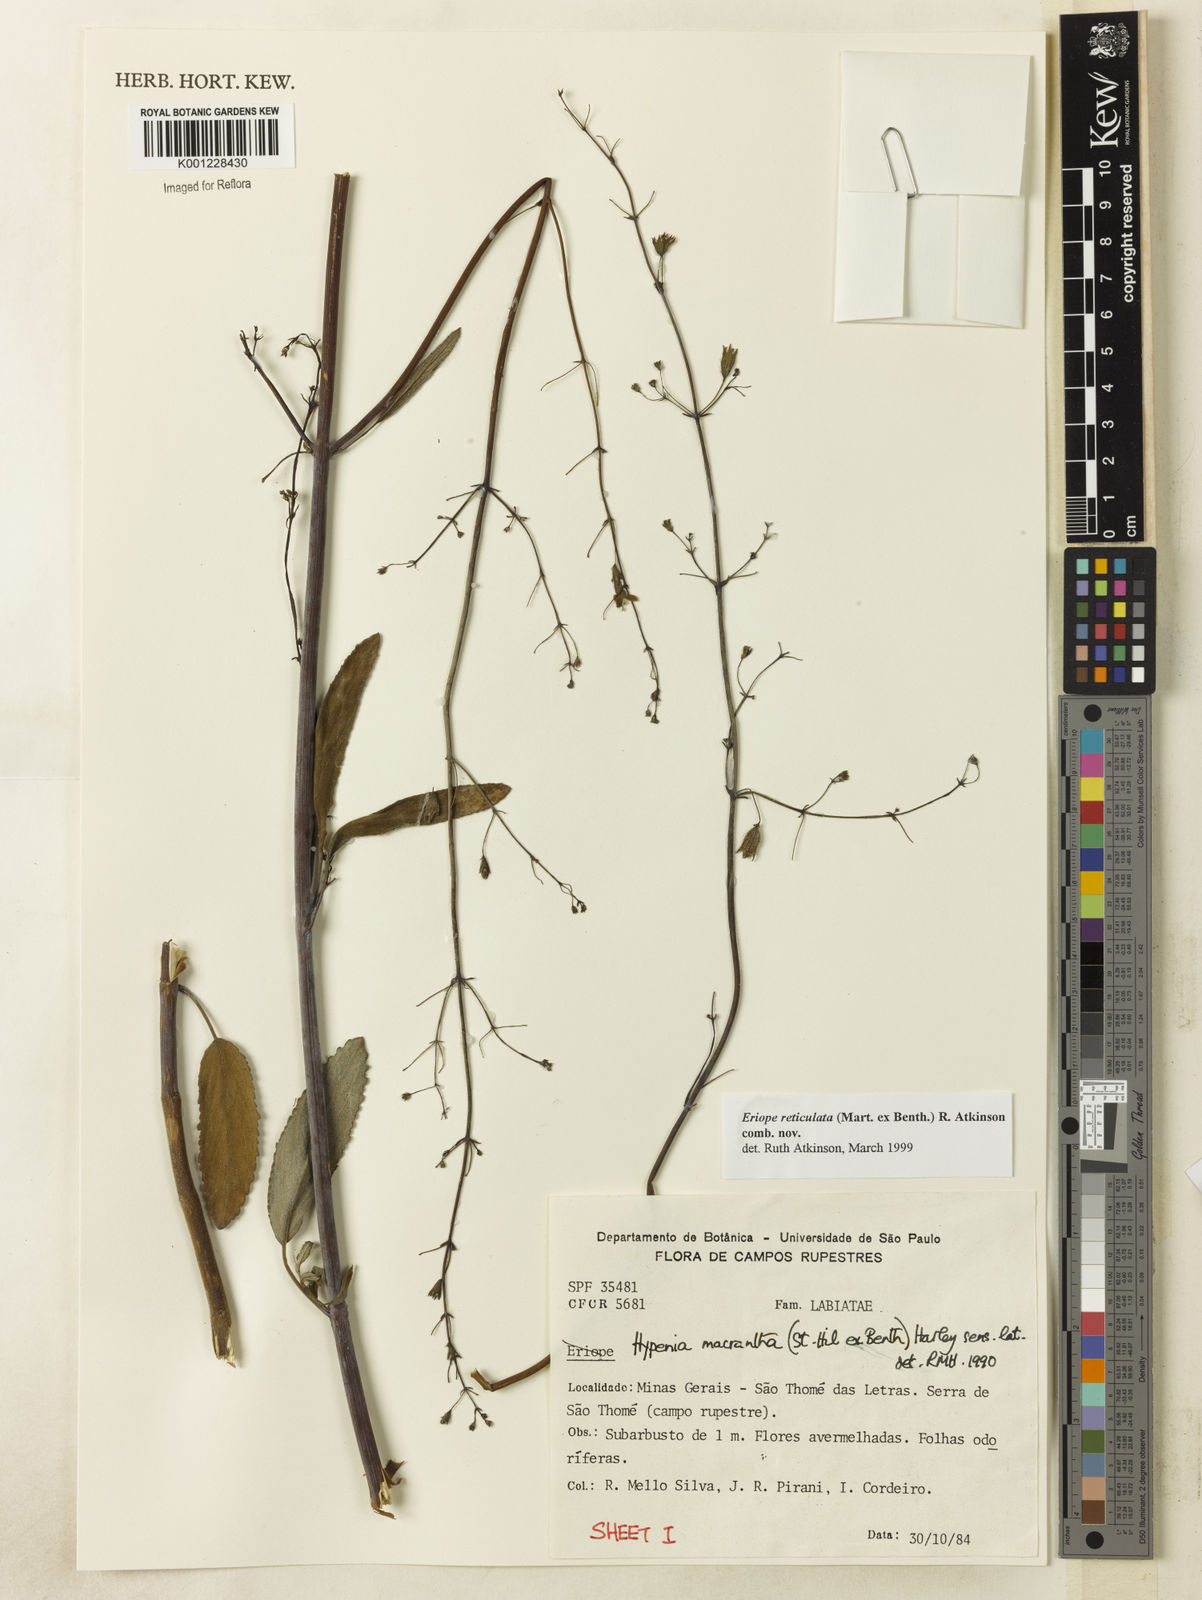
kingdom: Plantae
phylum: Tracheophyta
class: Magnoliopsida
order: Lamiales
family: Lamiaceae
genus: Hypenia
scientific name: Hypenia reticulata
